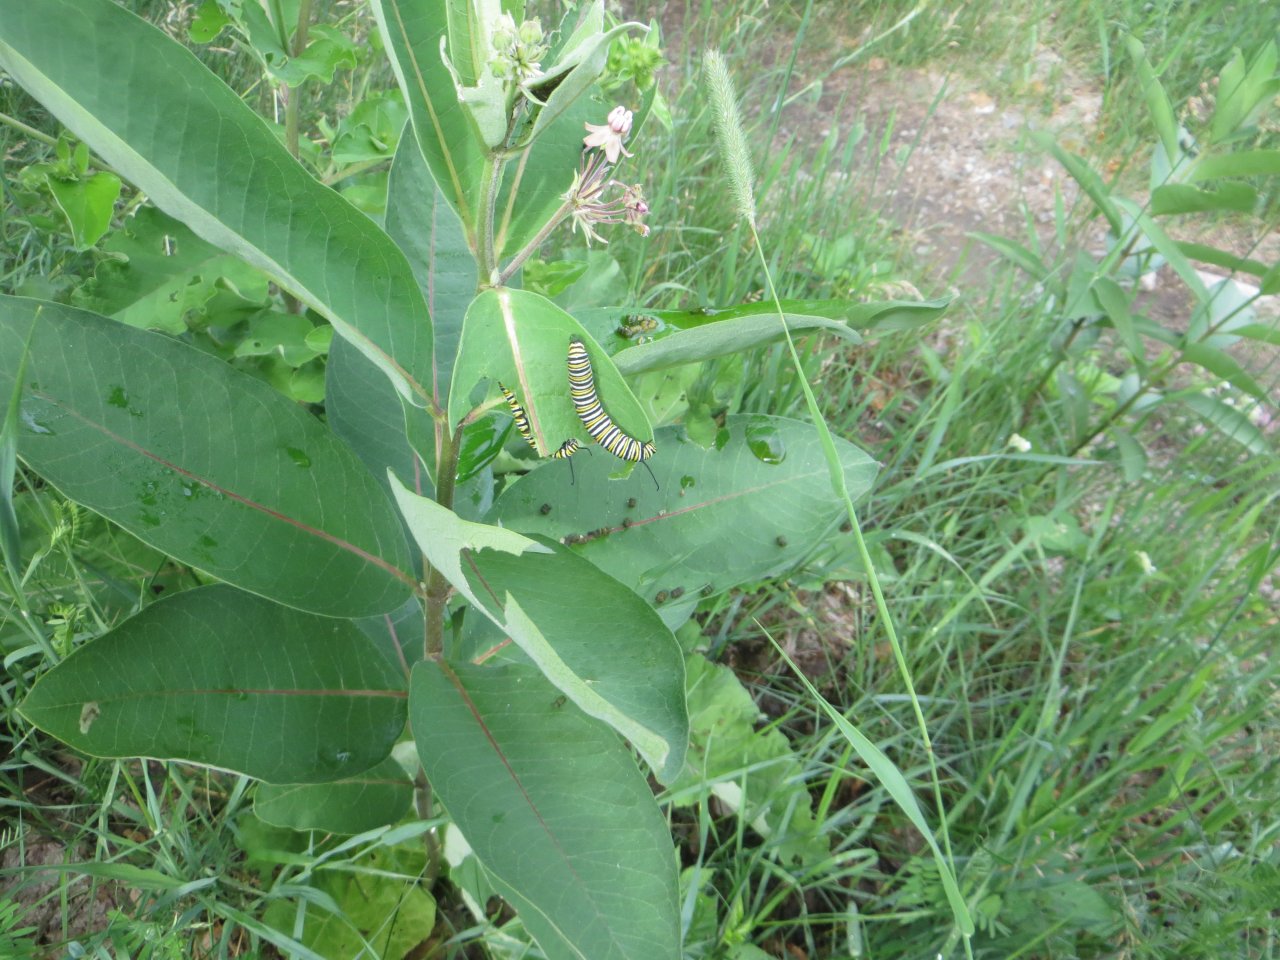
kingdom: Animalia
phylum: Arthropoda
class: Insecta
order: Lepidoptera
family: Nymphalidae
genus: Danaus
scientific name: Danaus plexippus
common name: Monarch
